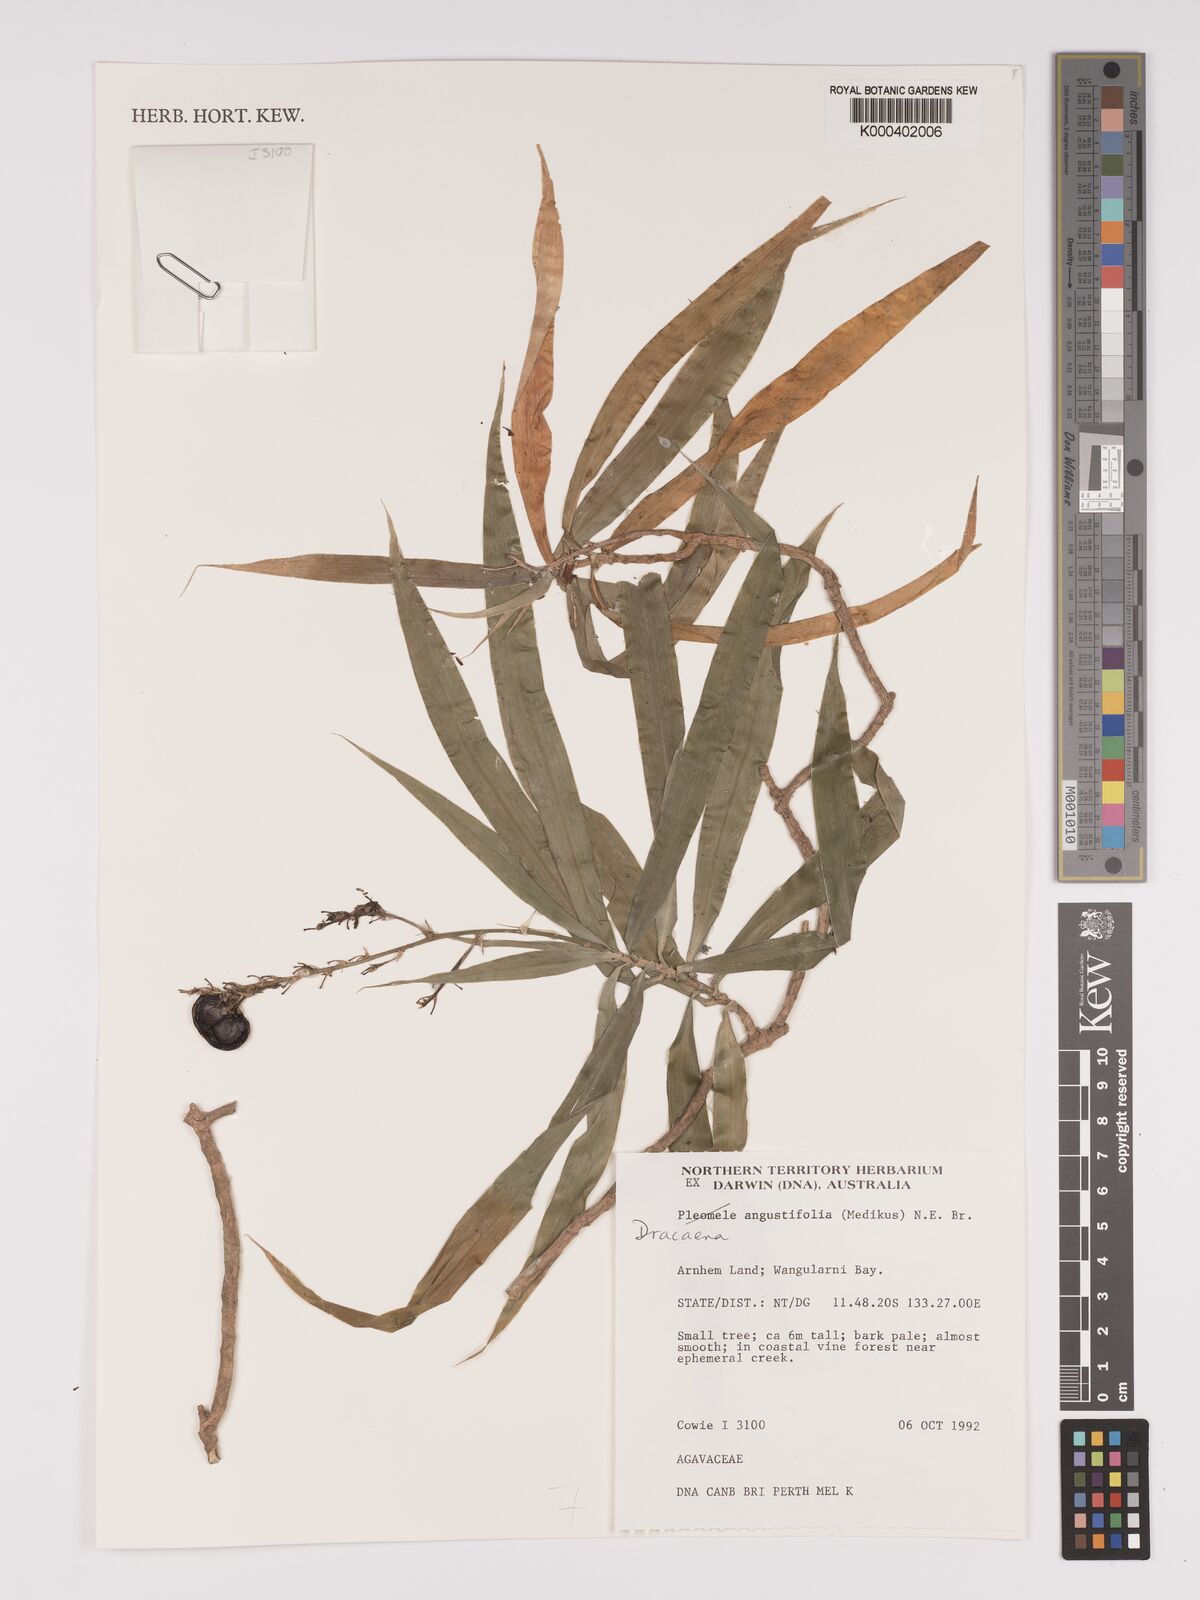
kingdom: Plantae
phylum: Tracheophyta
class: Liliopsida
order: Asparagales
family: Asparagaceae
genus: Dracaena
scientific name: Dracaena angustifolia
